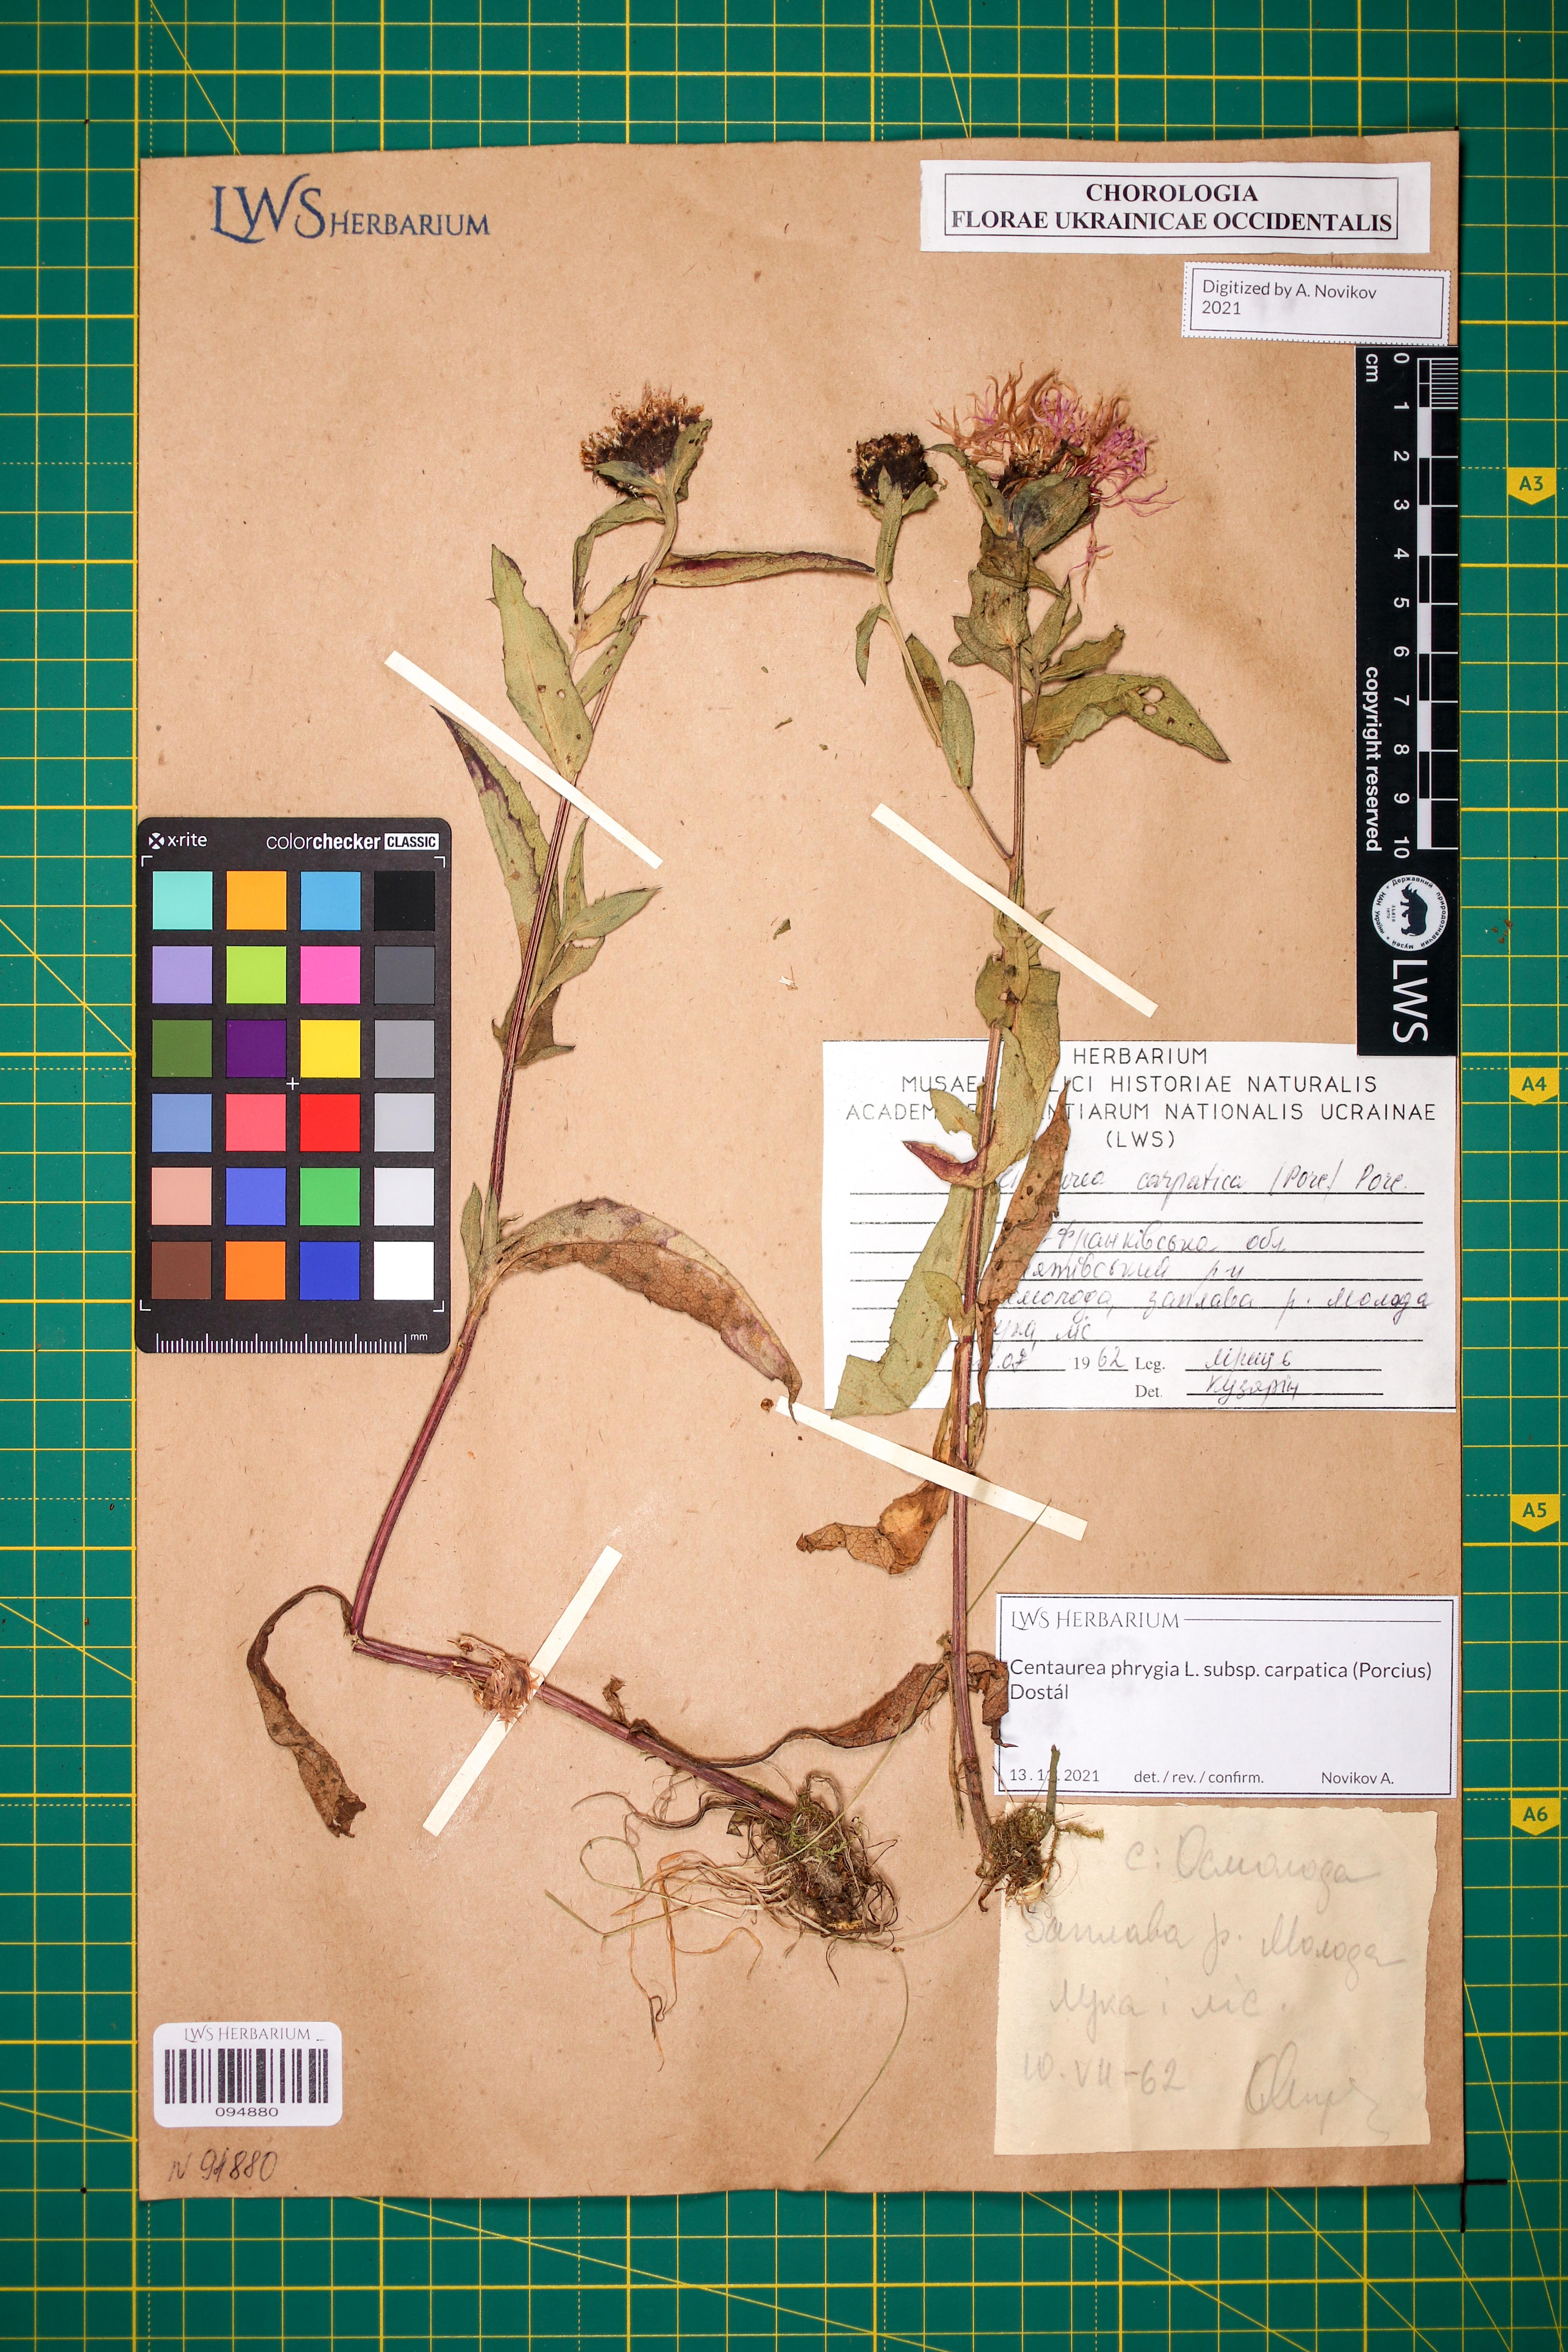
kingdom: Plantae
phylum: Tracheophyta
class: Magnoliopsida
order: Asterales
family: Asteraceae
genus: Centaurea
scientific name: Centaurea phrygia
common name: Wig knapweed
